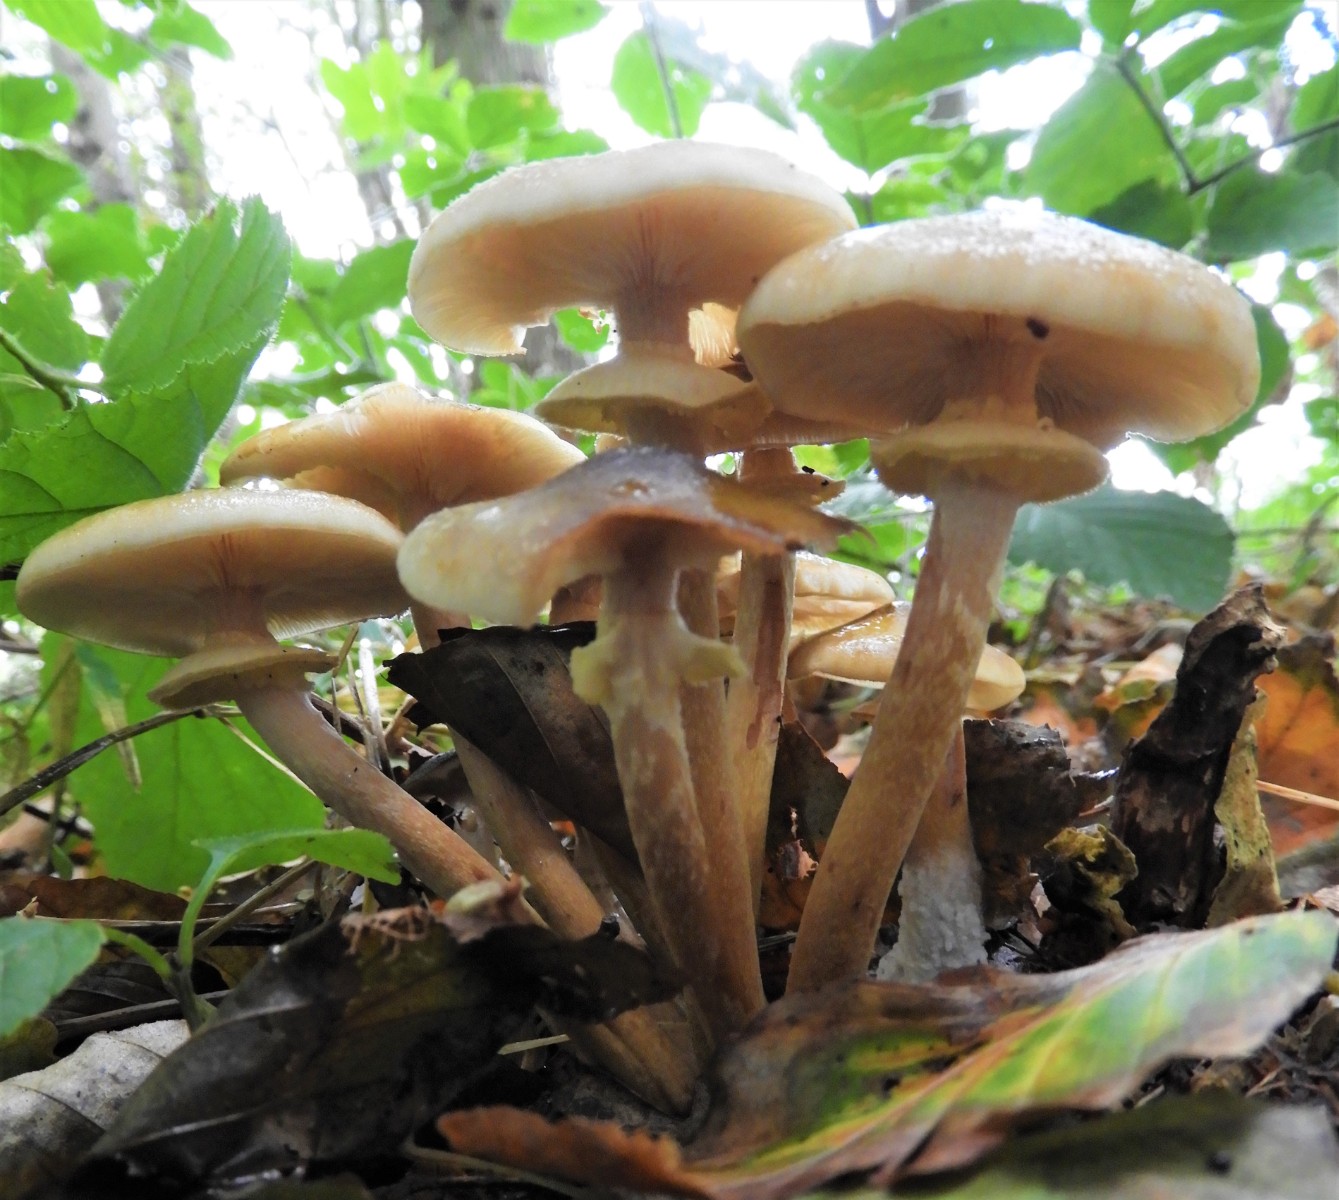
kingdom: Fungi
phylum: Basidiomycota
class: Agaricomycetes
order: Agaricales
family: Physalacriaceae
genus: Armillaria
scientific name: Armillaria mellea
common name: ægte honningsvamp
